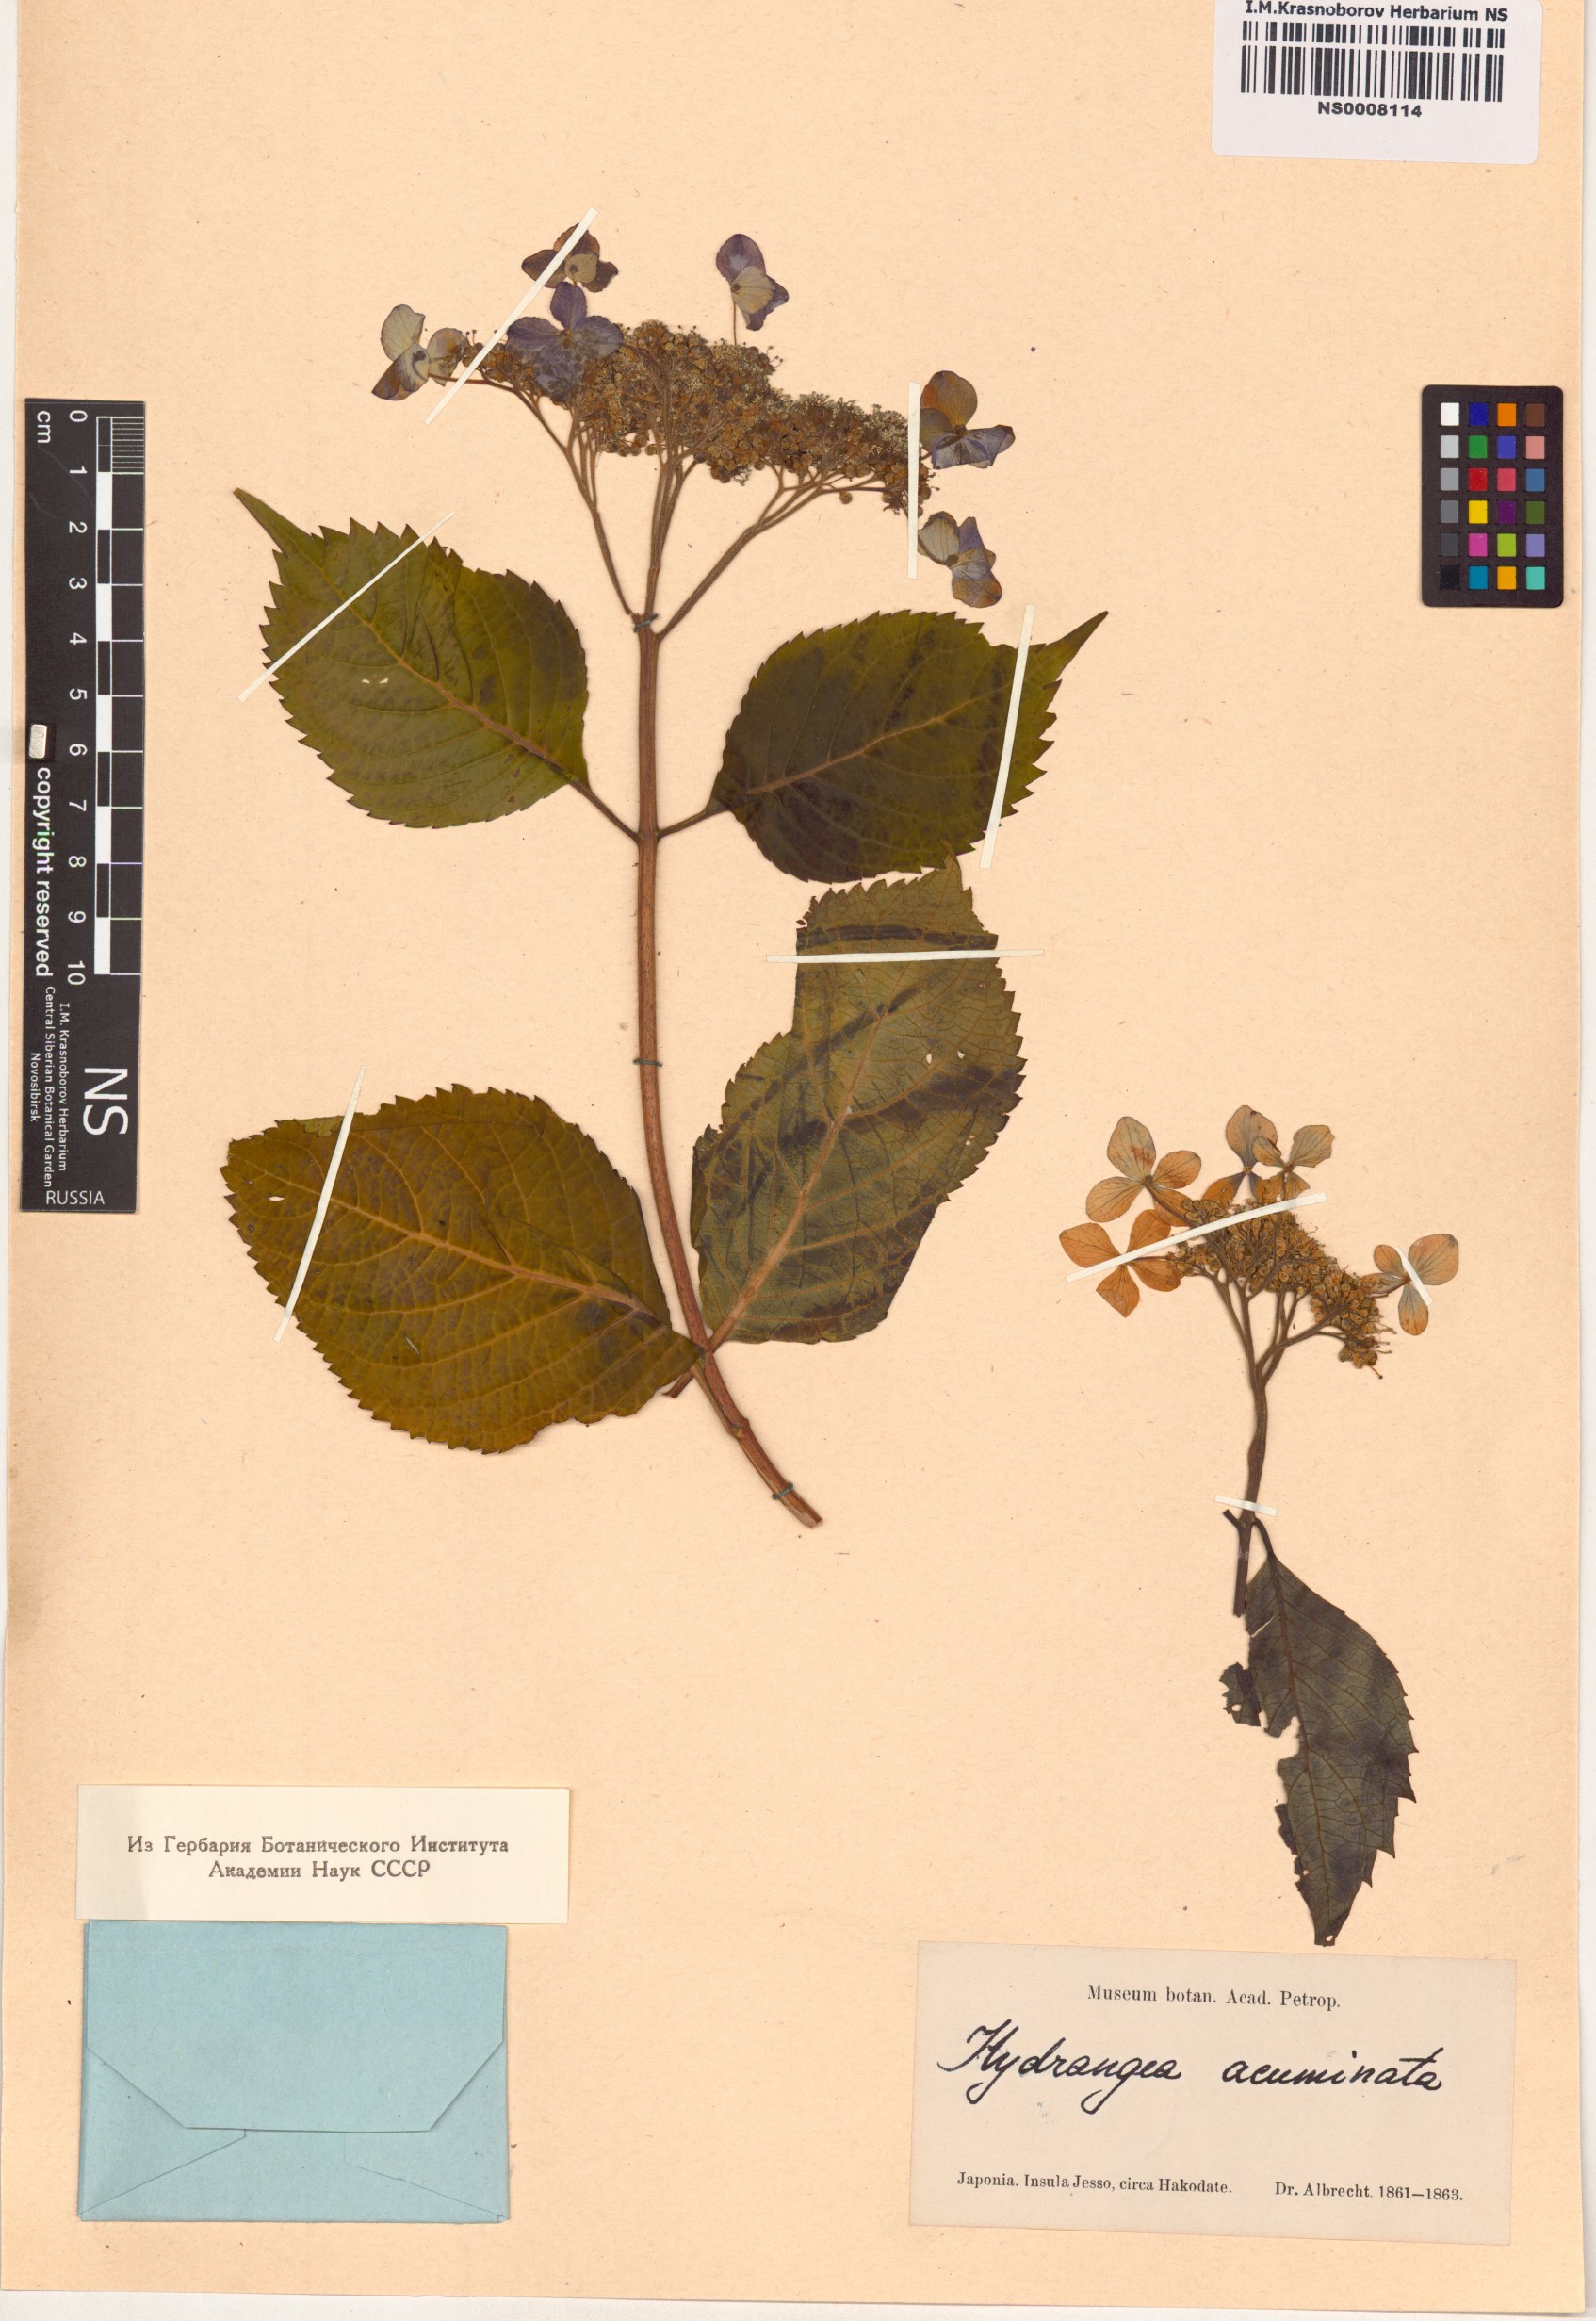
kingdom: Plantae
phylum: Tracheophyta
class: Magnoliopsida
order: Cornales
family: Hydrangeaceae
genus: Hydrangea
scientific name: Hydrangea acuminata
